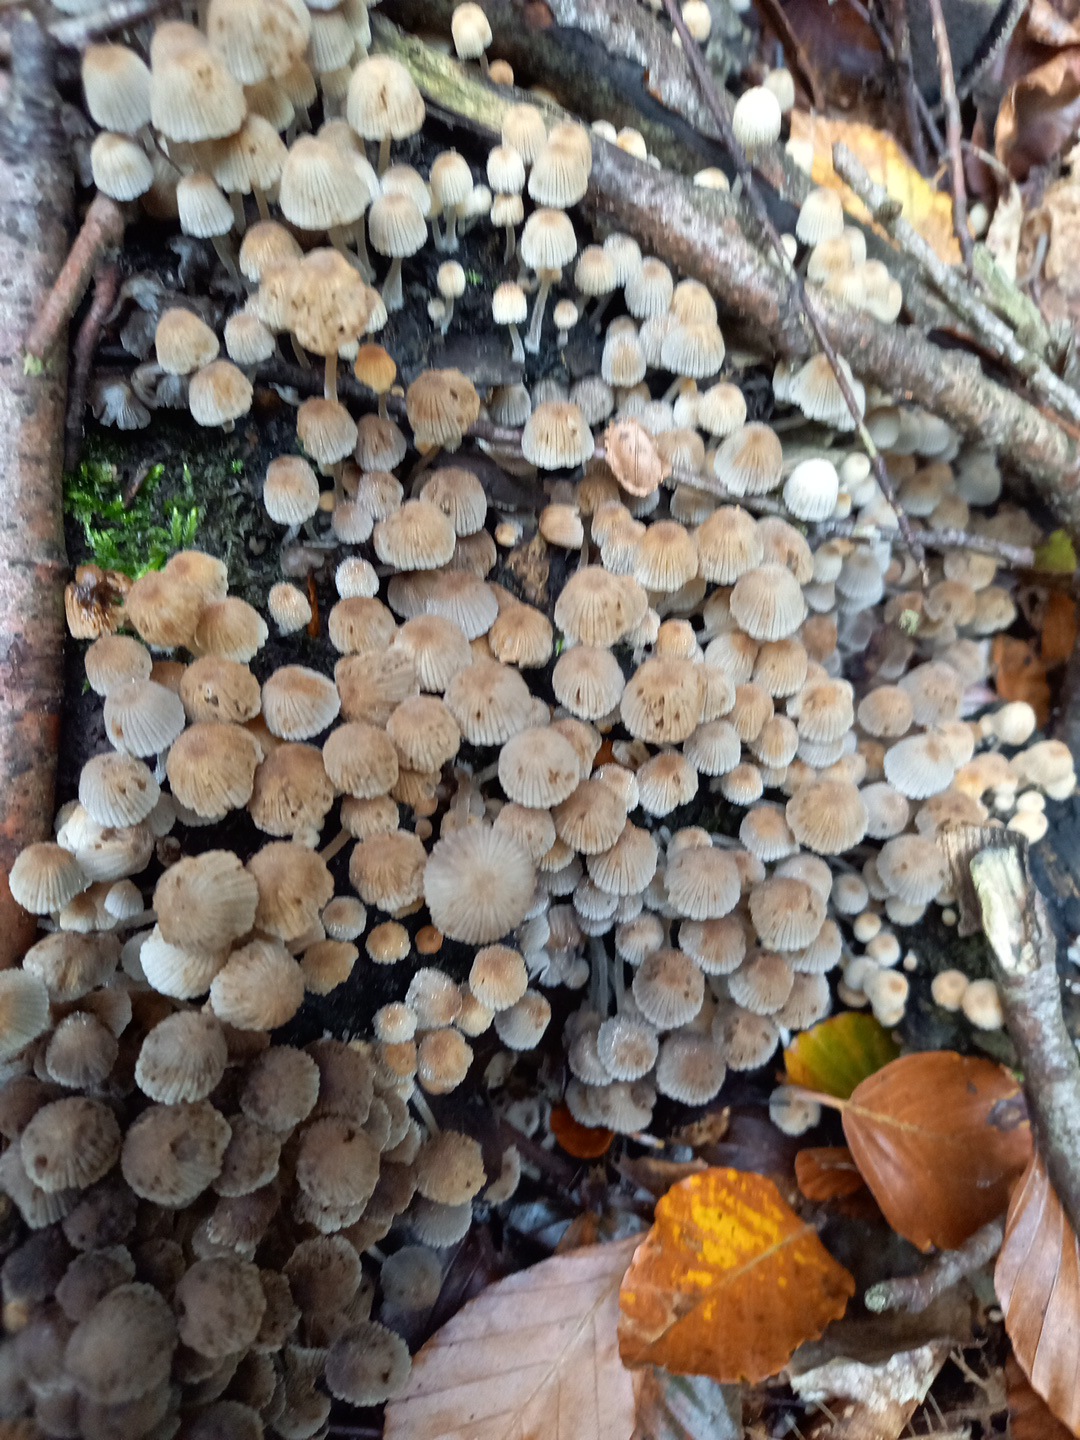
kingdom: Fungi
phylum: Basidiomycota
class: Agaricomycetes
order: Agaricales
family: Psathyrellaceae
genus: Coprinellus
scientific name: Coprinellus disseminatus
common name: bredsået blækhat
